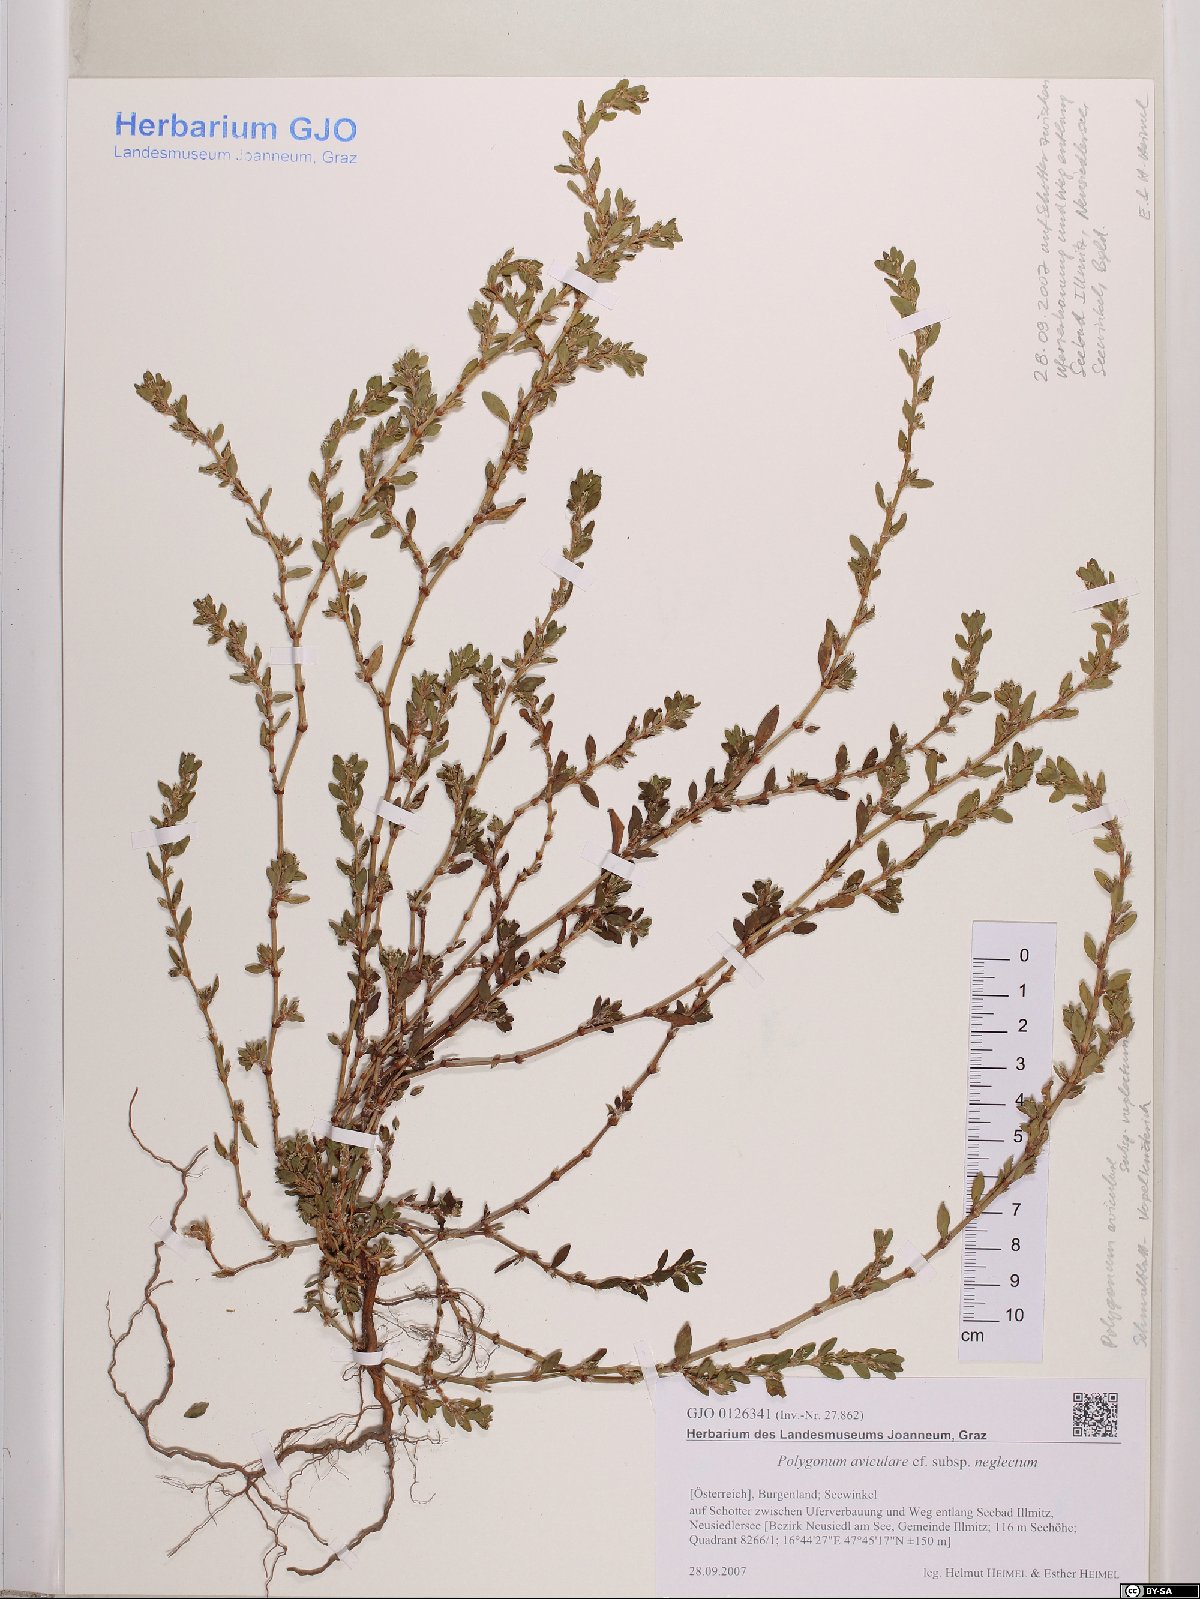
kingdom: Plantae
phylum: Tracheophyta
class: Magnoliopsida
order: Caryophyllales
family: Polygonaceae
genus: Polygonum
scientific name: Polygonum aviculare
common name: Prostrate knotweed
